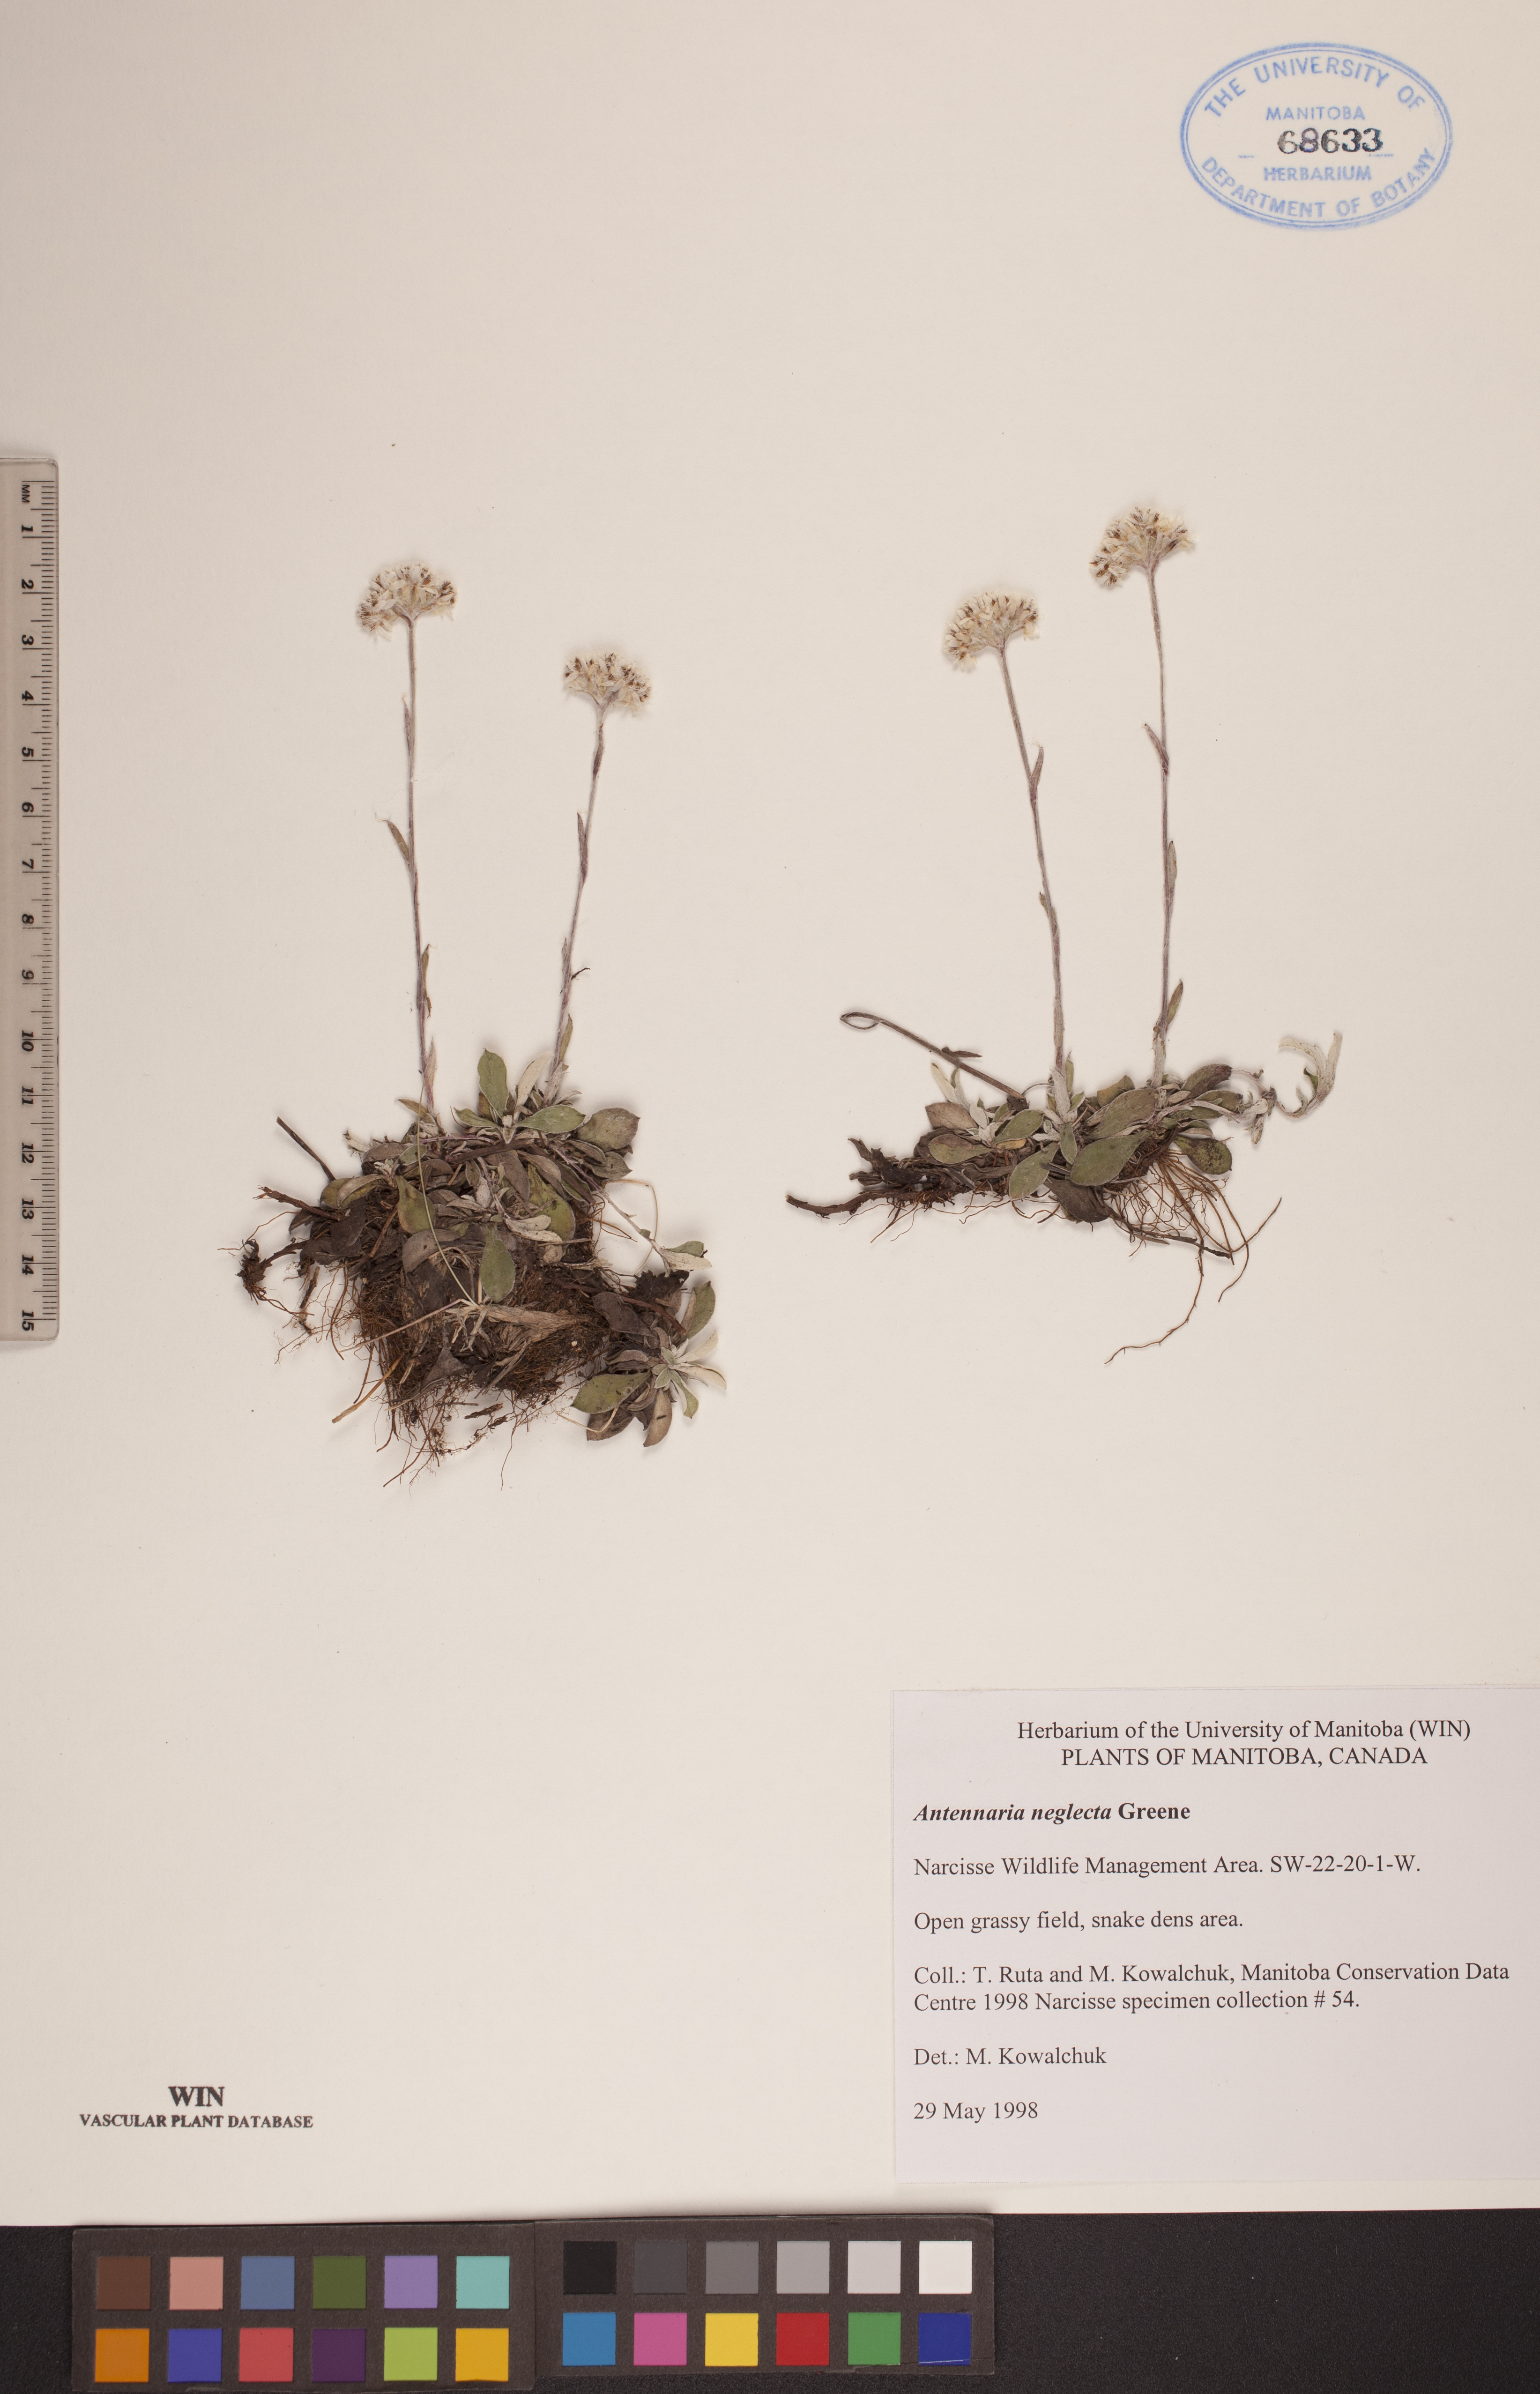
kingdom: Plantae
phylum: Tracheophyta
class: Magnoliopsida
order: Asterales
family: Asteraceae
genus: Antennaria
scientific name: Antennaria neglecta
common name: Field pussytoes
